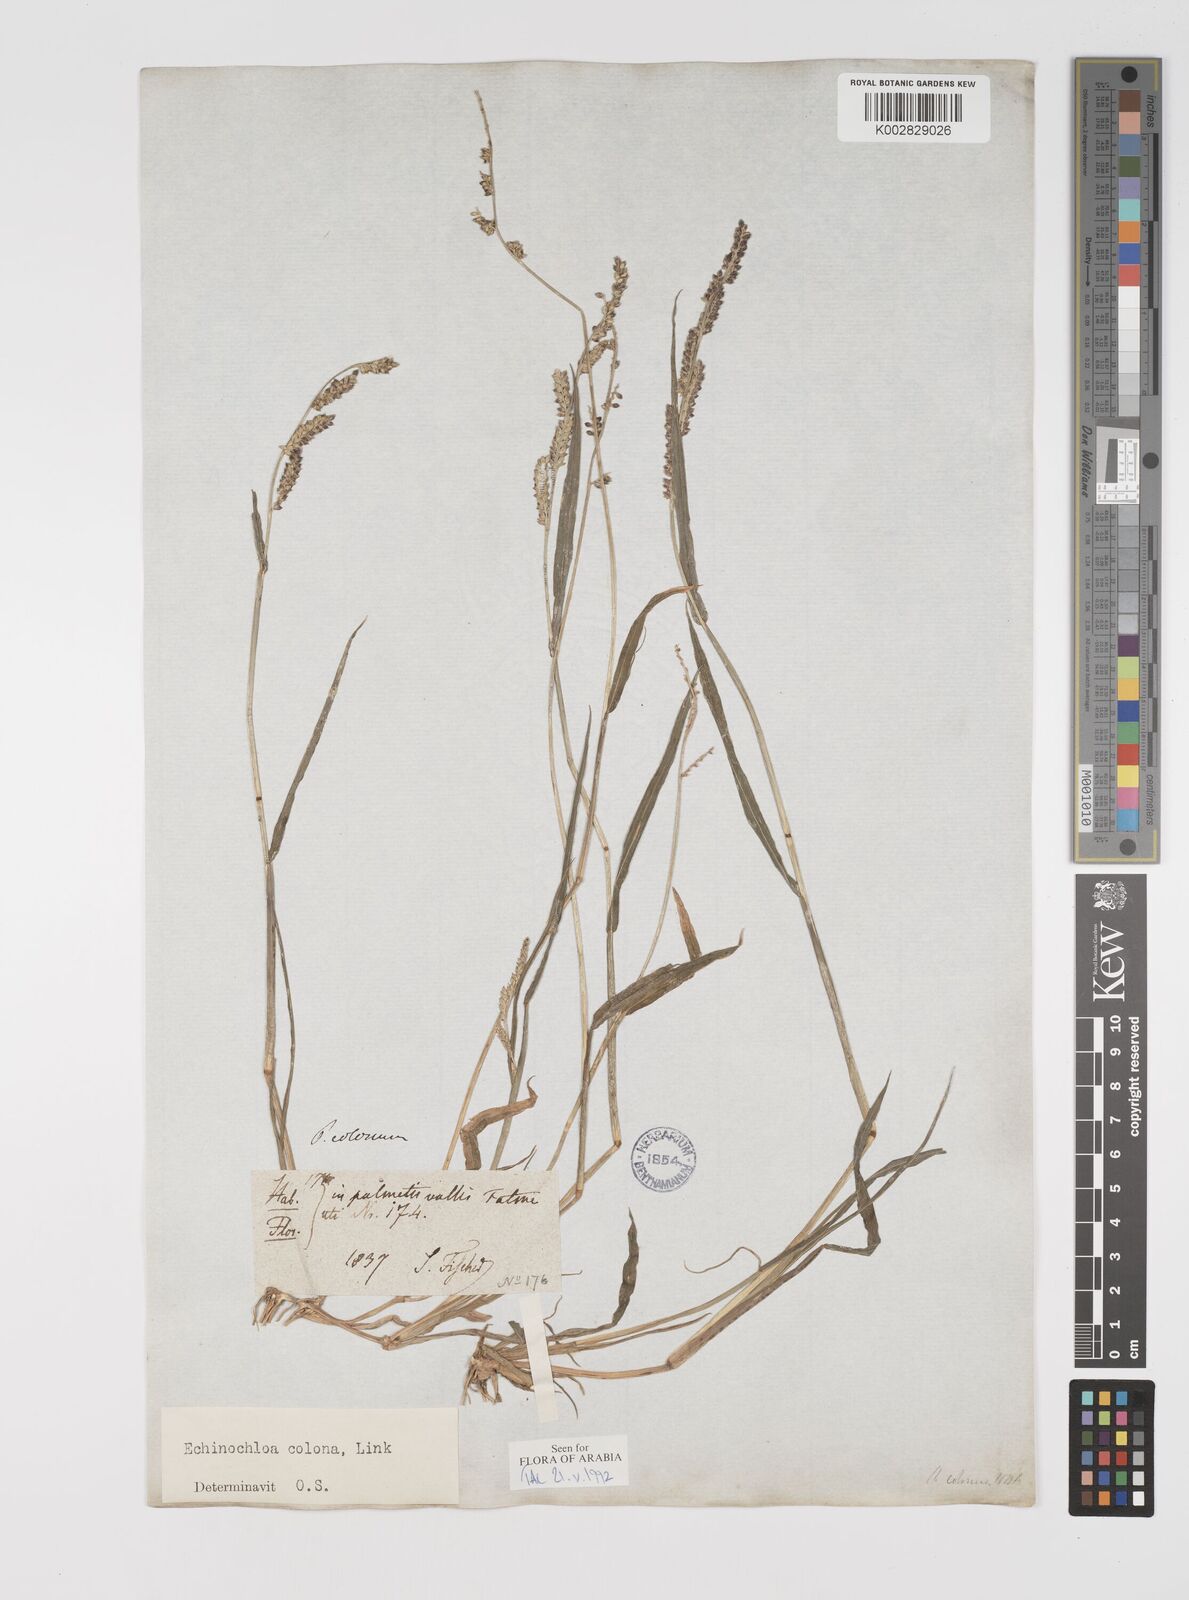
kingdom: Plantae
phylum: Tracheophyta
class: Liliopsida
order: Poales
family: Poaceae
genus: Echinochloa
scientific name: Echinochloa colonum
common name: Jungle rice
